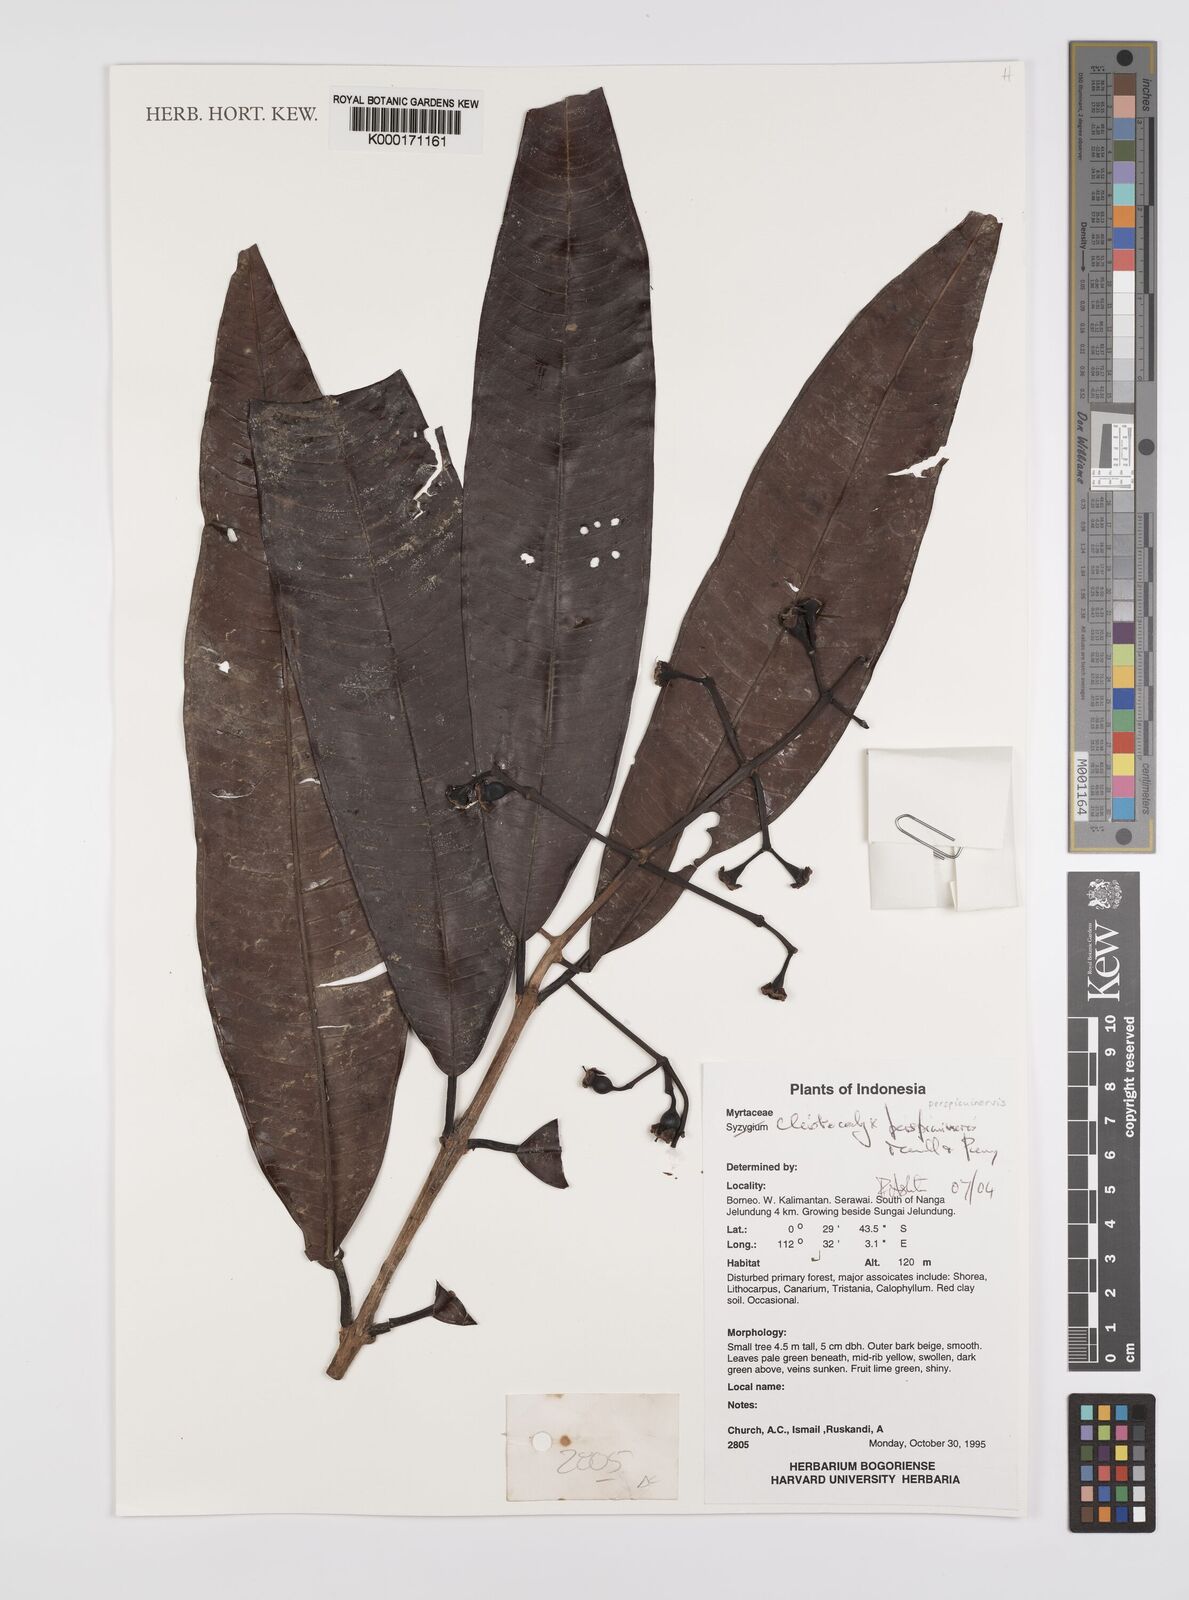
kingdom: Plantae
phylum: Tracheophyta
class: Magnoliopsida
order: Myrtales
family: Myrtaceae
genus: Syzygium
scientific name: Syzygium perspicuinervium
